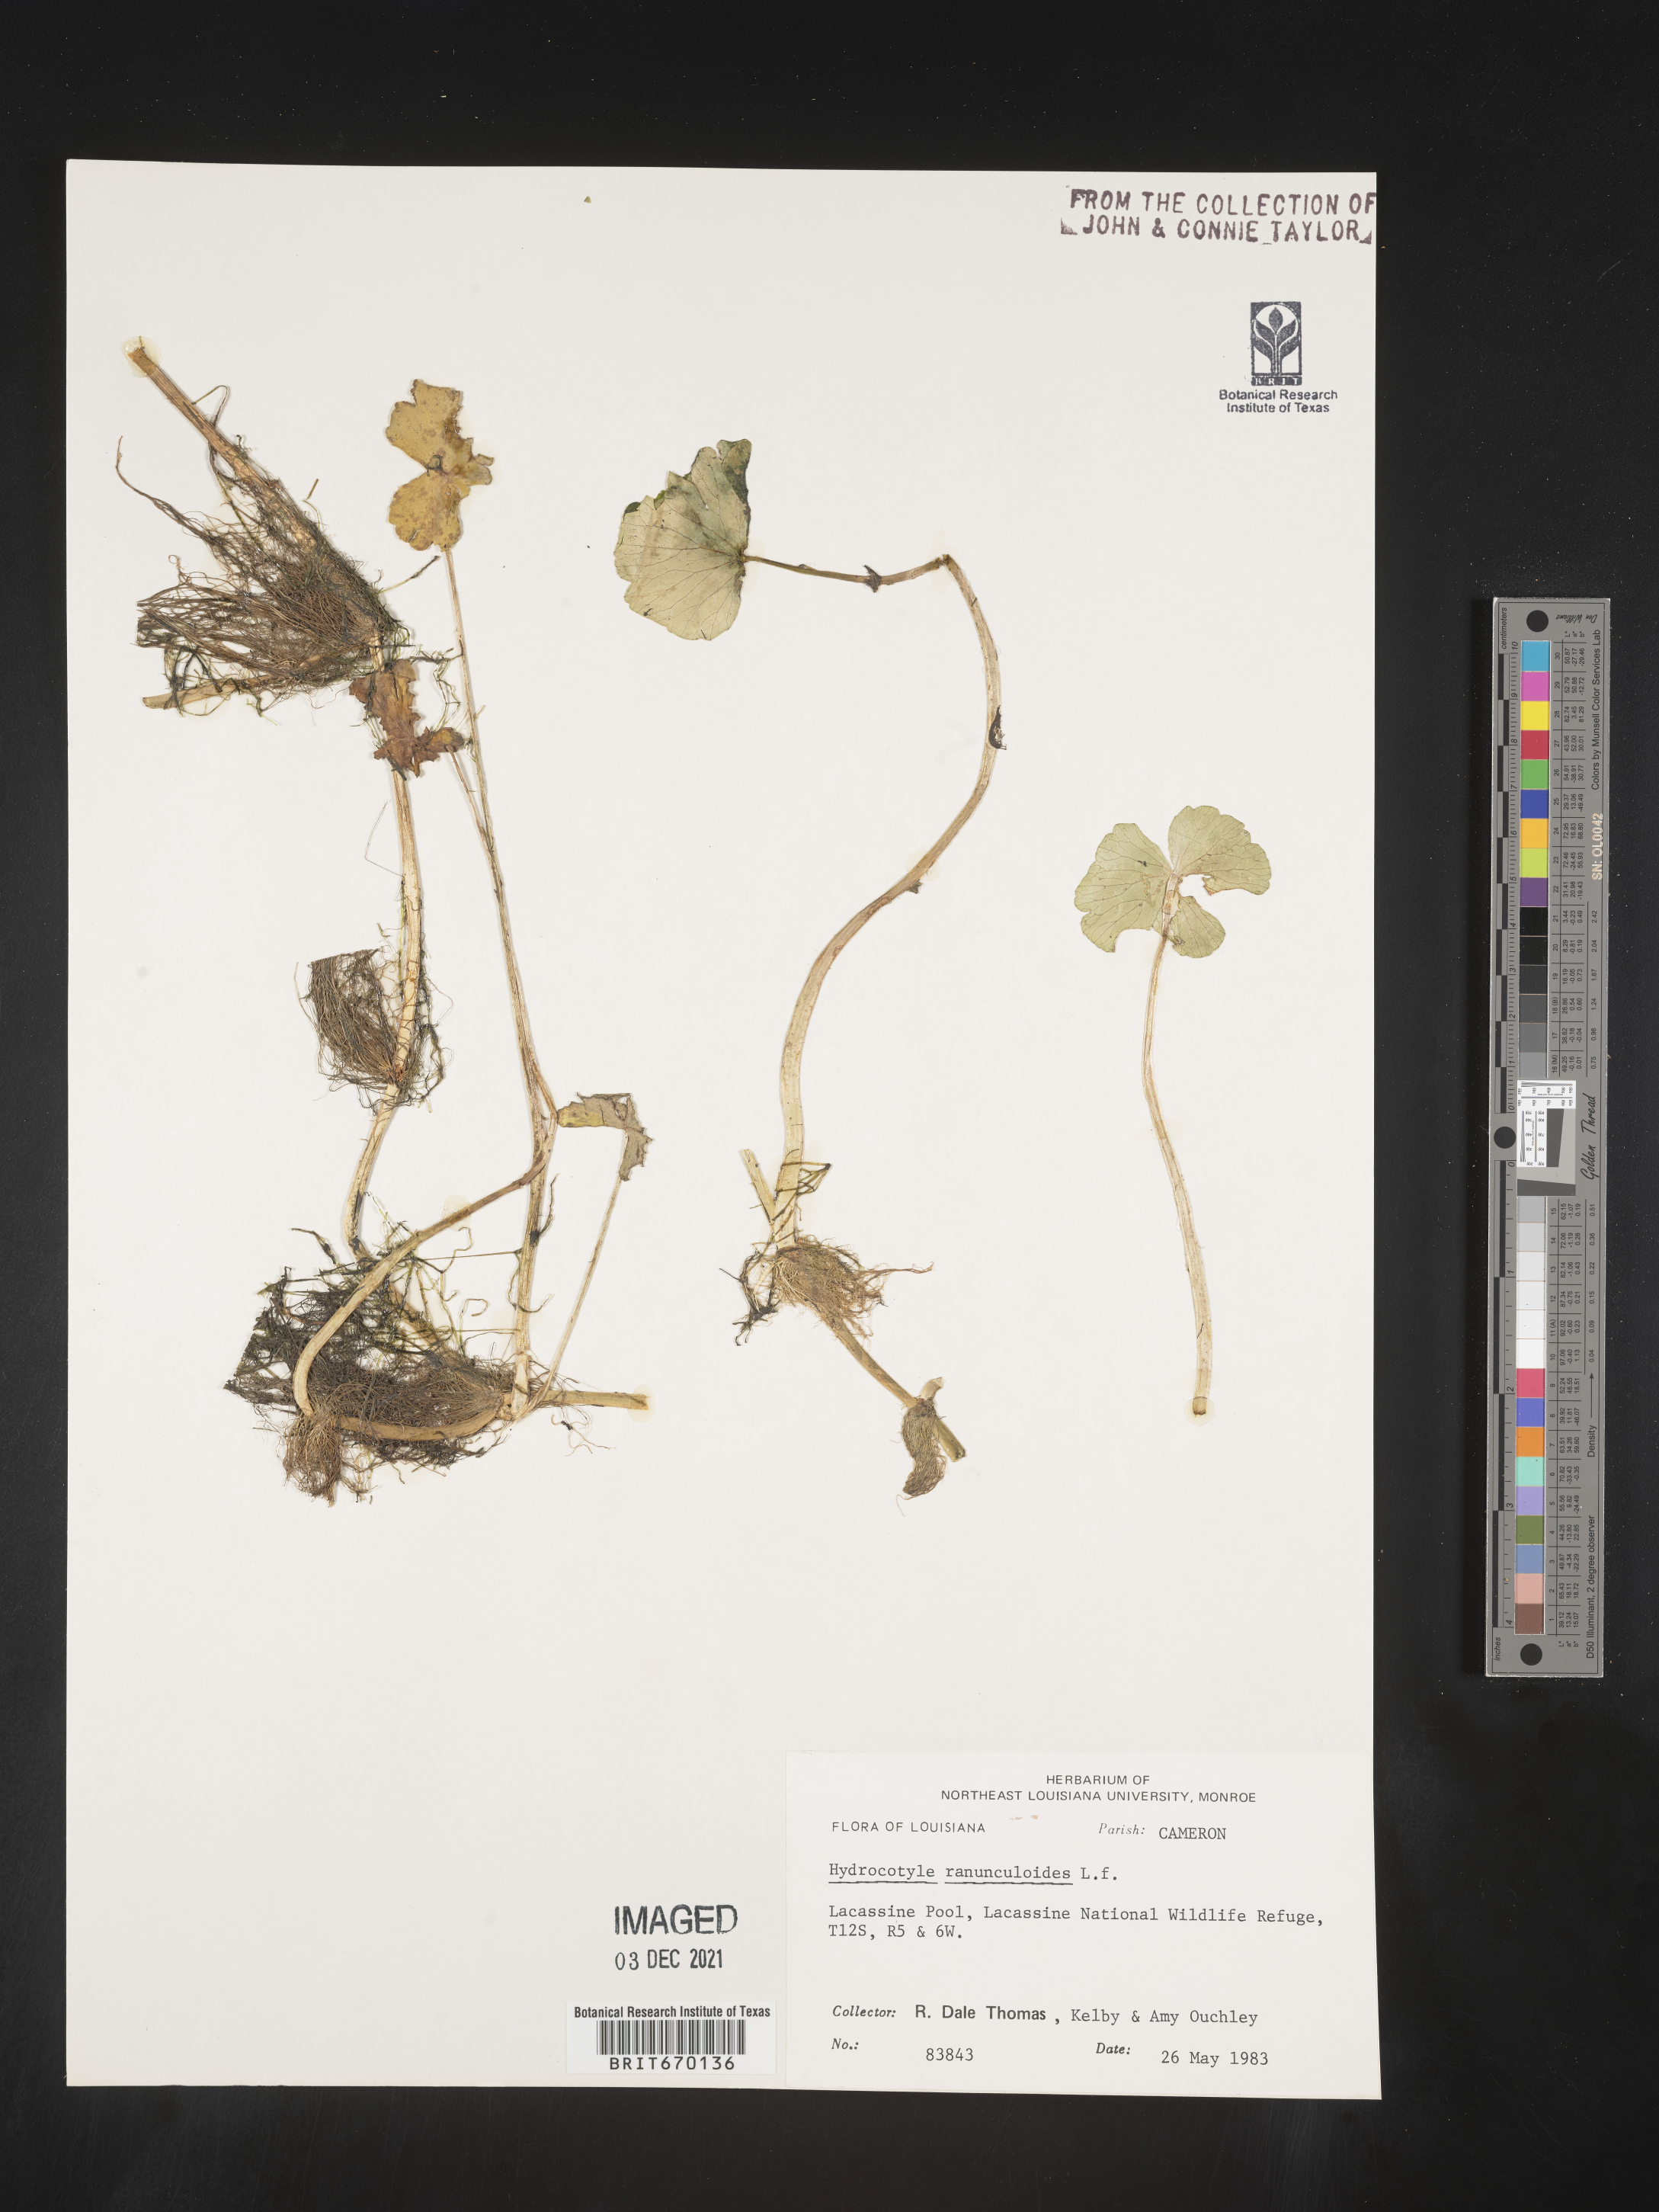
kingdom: Plantae
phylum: Tracheophyta
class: Magnoliopsida
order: Apiales
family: Araliaceae
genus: Hydrocotyle
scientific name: Hydrocotyle ranunculoides
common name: Floating pennywort
